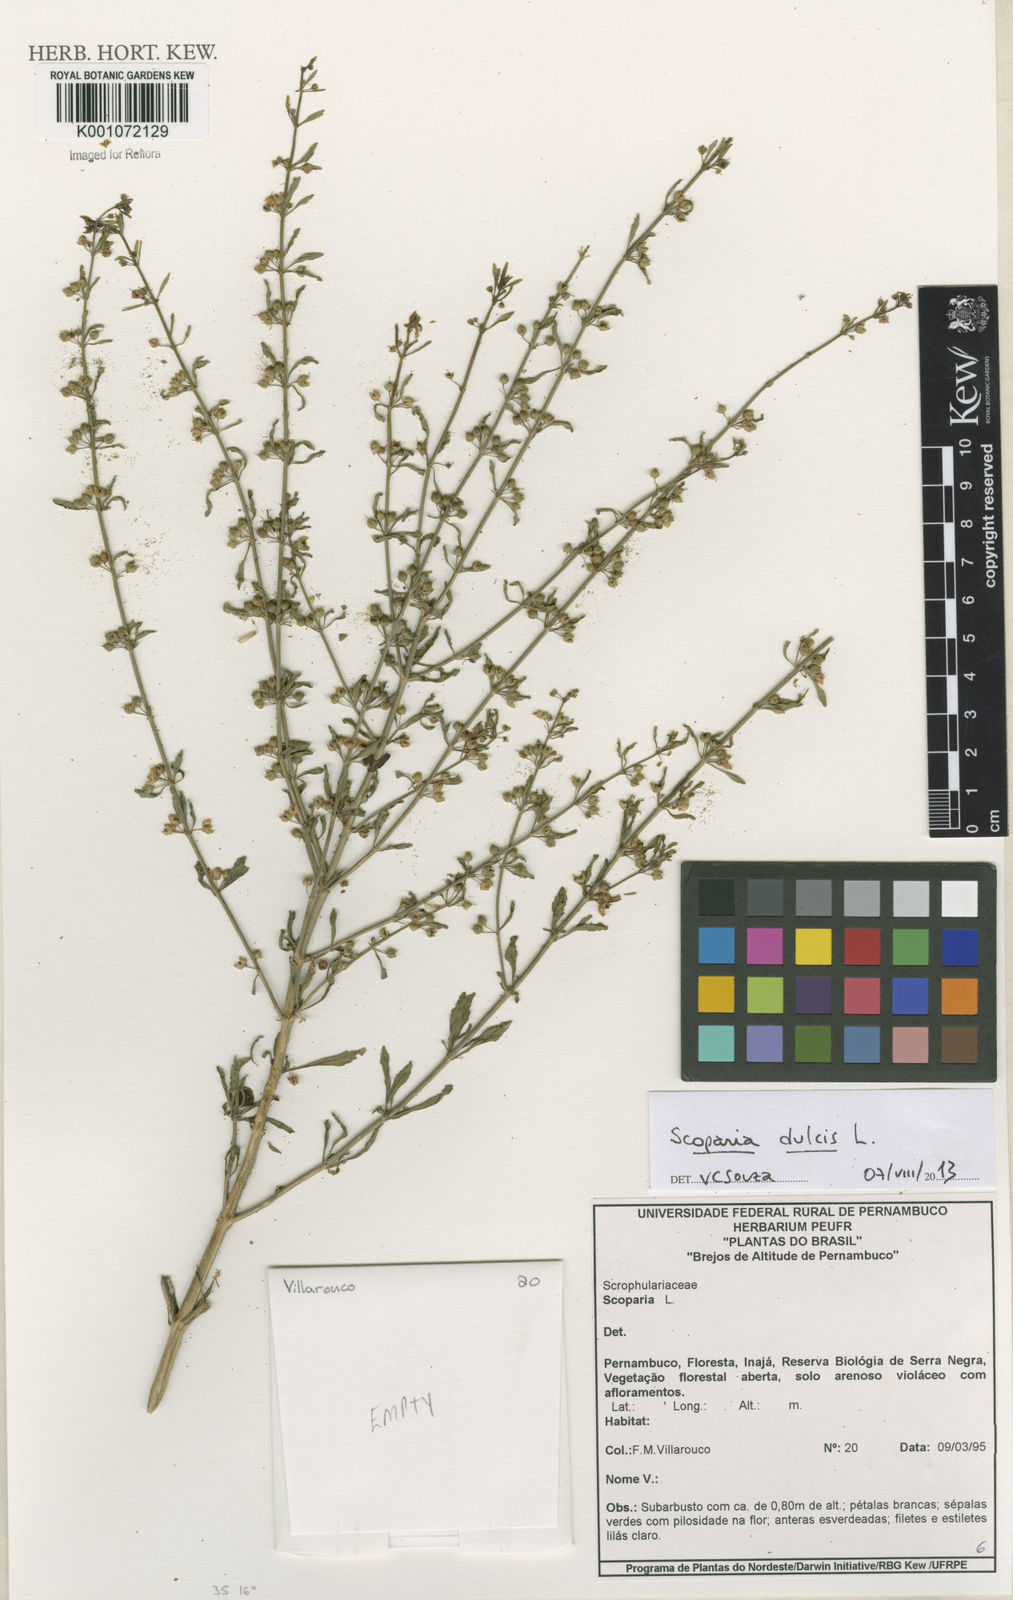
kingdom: Plantae
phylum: Tracheophyta
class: Magnoliopsida
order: Lamiales
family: Plantaginaceae
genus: Scoparia
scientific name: Scoparia dulcis
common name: Scoparia-weed
